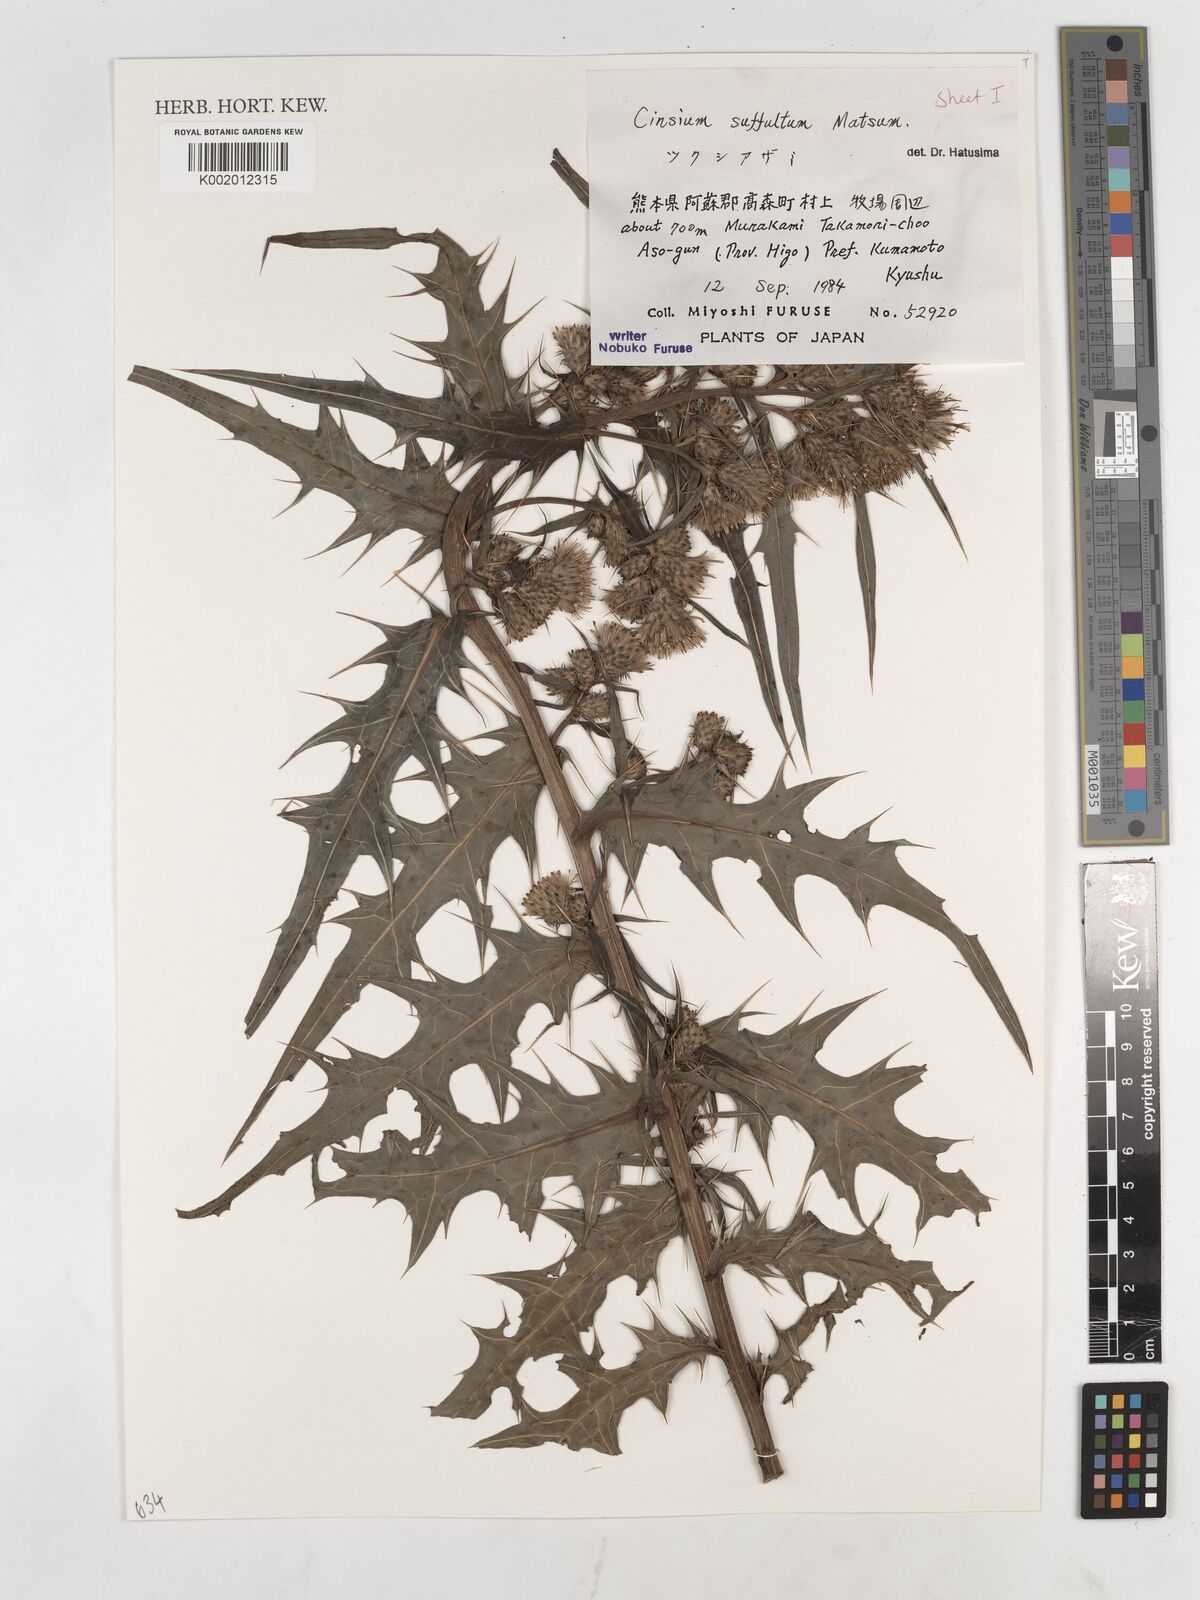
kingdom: Plantae
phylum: Tracheophyta
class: Magnoliopsida
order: Asterales
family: Asteraceae
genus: Cirsium
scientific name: Cirsium suffultum
